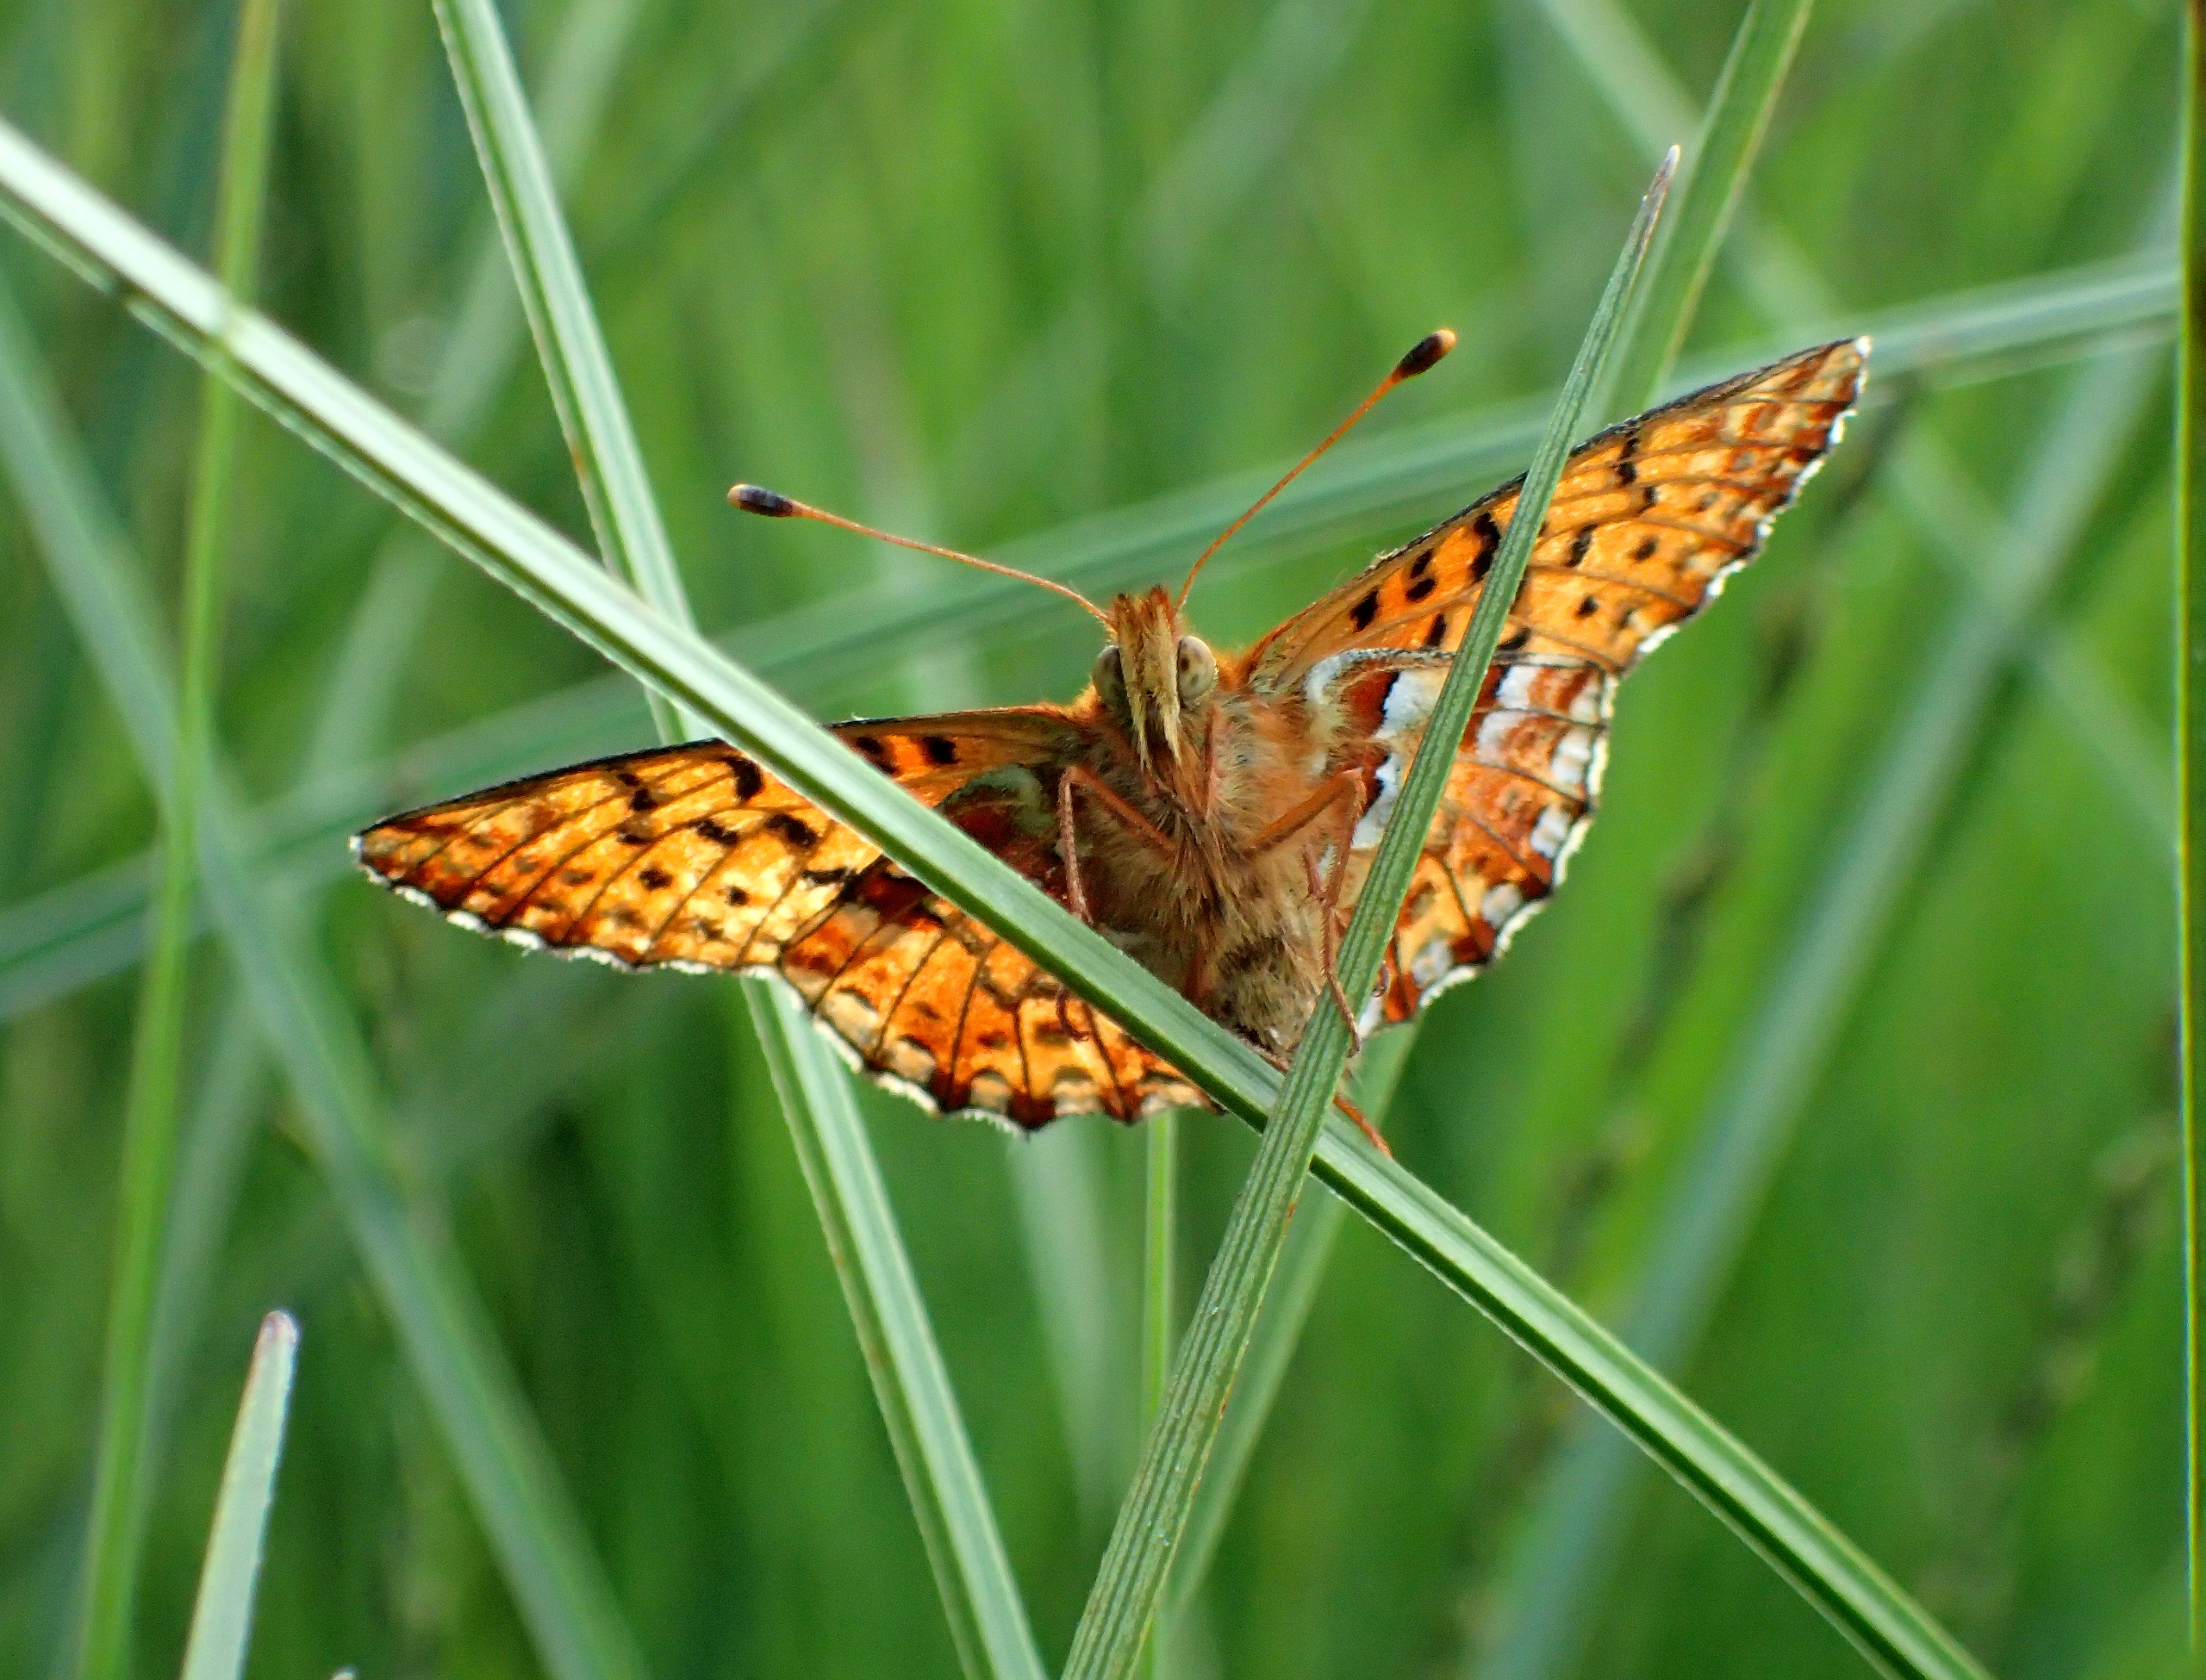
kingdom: Animalia
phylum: Arthropoda
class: Insecta
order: Lepidoptera
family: Nymphalidae
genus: Boloria
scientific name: Boloria aquilonaris
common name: Moseperlemorsommerfugl
